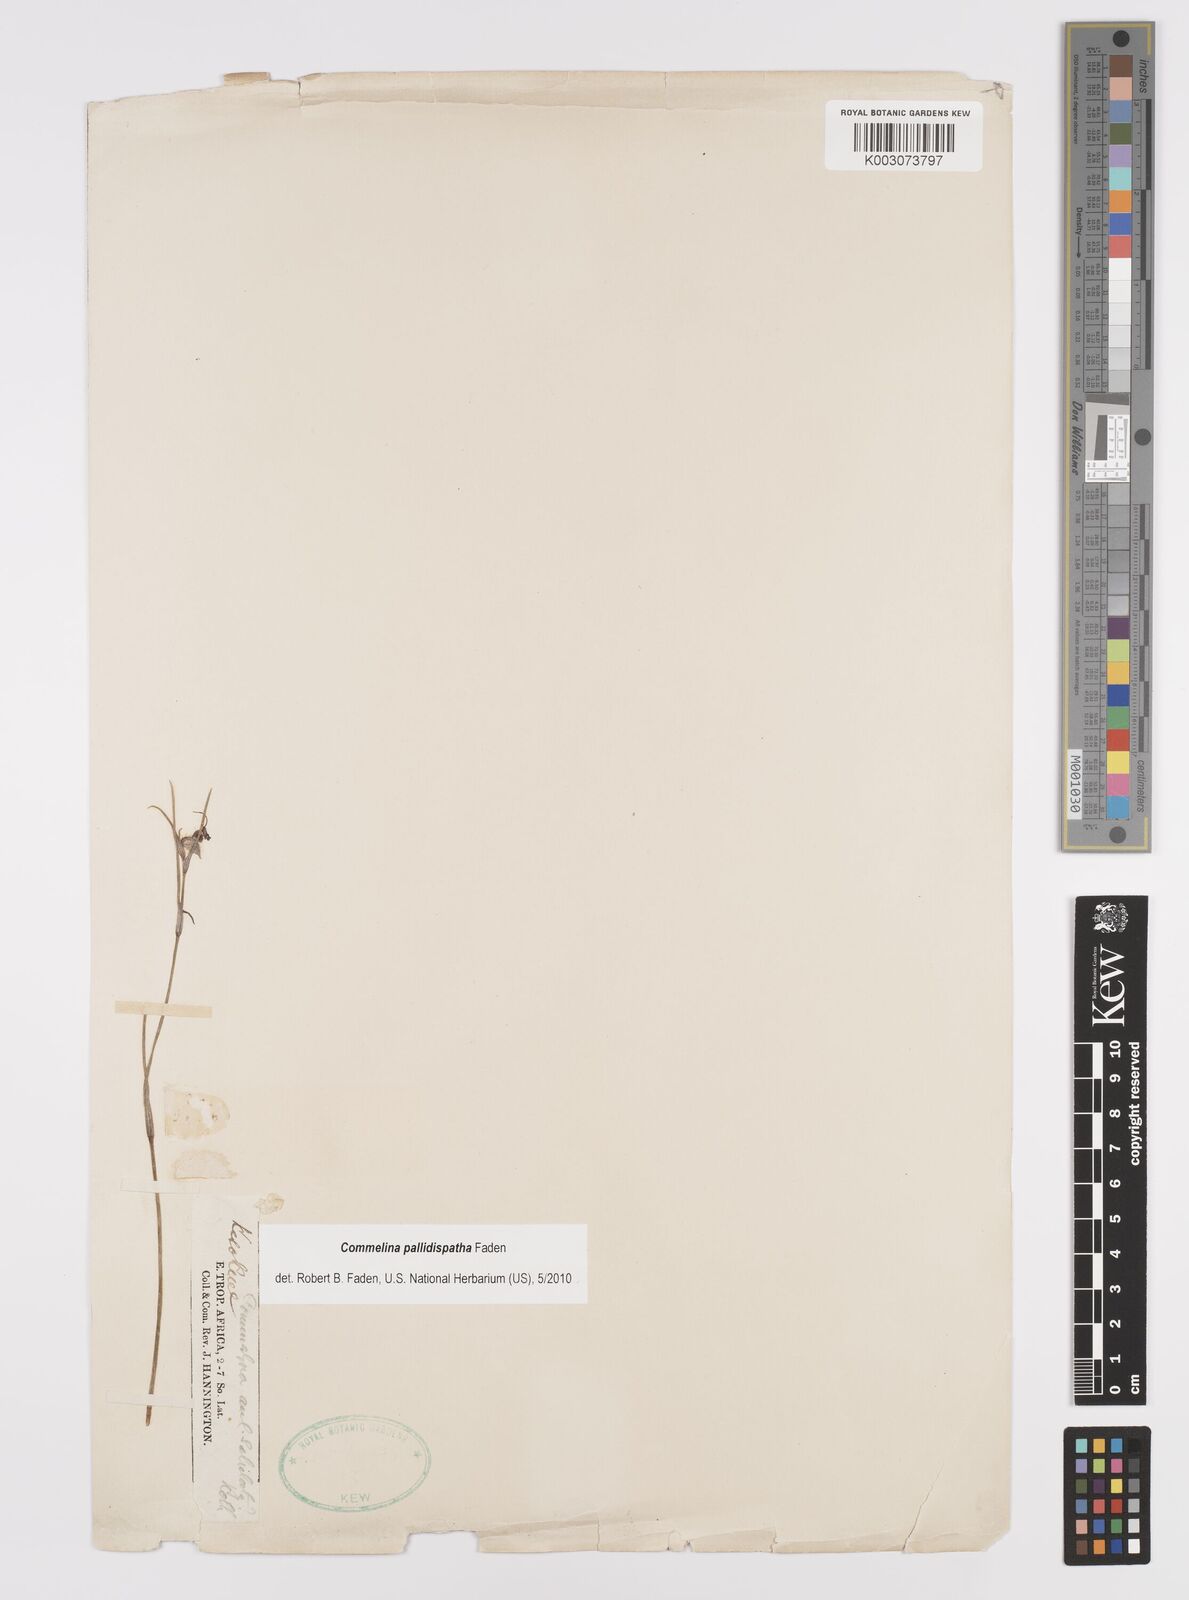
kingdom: Plantae
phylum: Tracheophyta
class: Liliopsida
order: Commelinales
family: Commelinaceae
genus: Commelina
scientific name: Commelina pallidispatha
